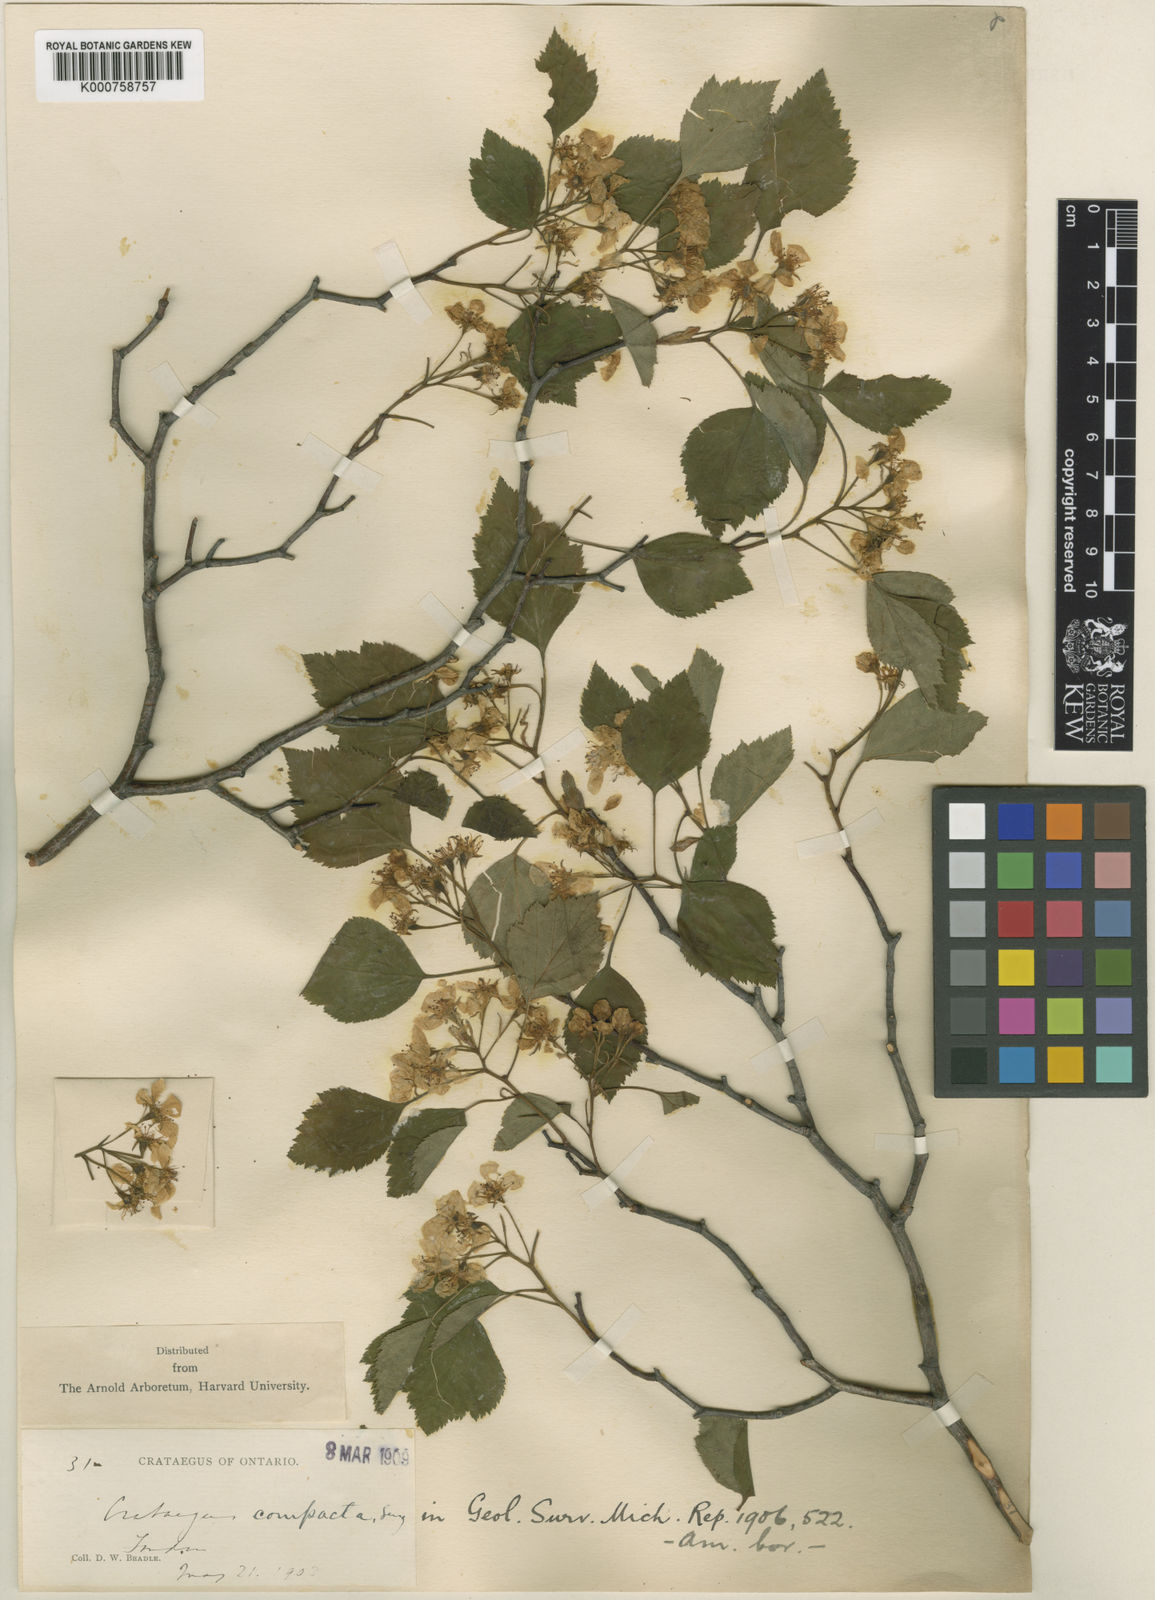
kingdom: Plantae
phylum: Tracheophyta
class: Magnoliopsida
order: Rosales
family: Rosaceae
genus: Crataegus
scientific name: Crataegus compacta
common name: Clustered hawthorn
